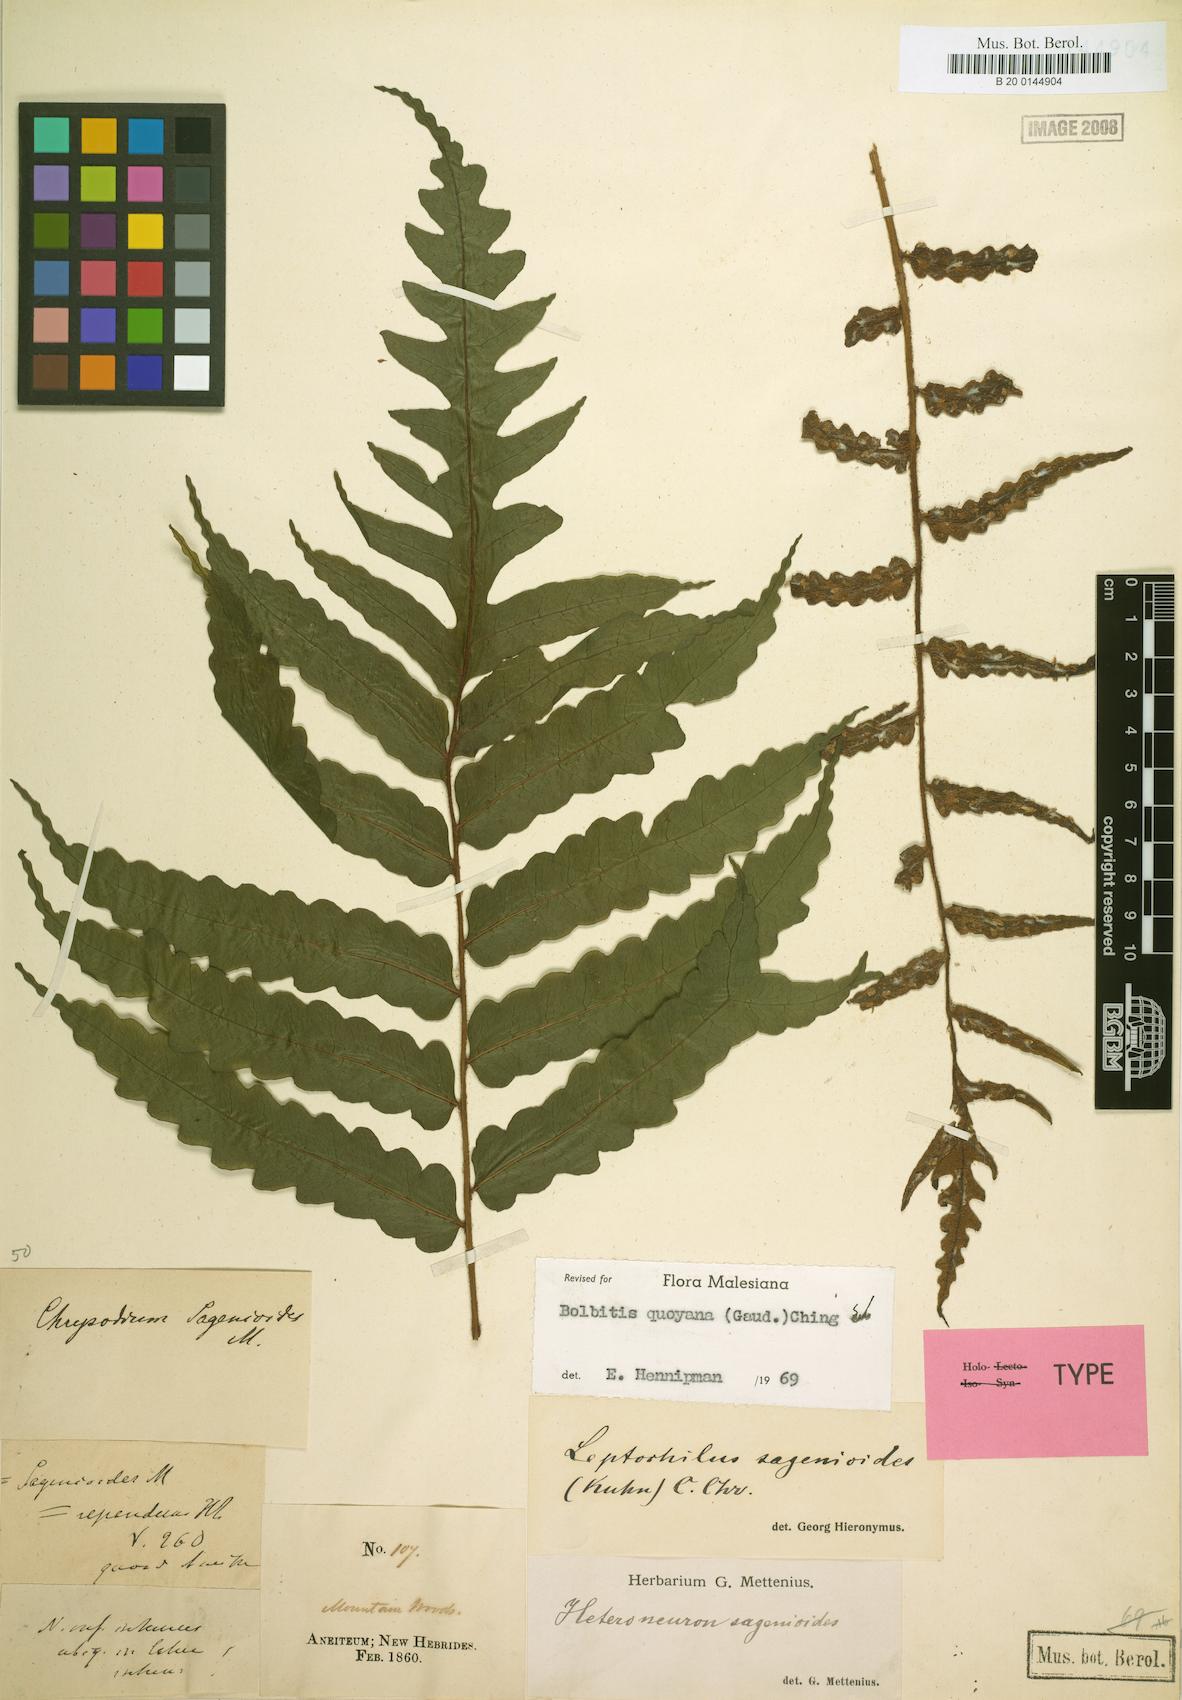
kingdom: Plantae
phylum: Tracheophyta
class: Polypodiopsida
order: Polypodiales
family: Dryopteridaceae
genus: Bolbitis
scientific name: Bolbitis quoyana
